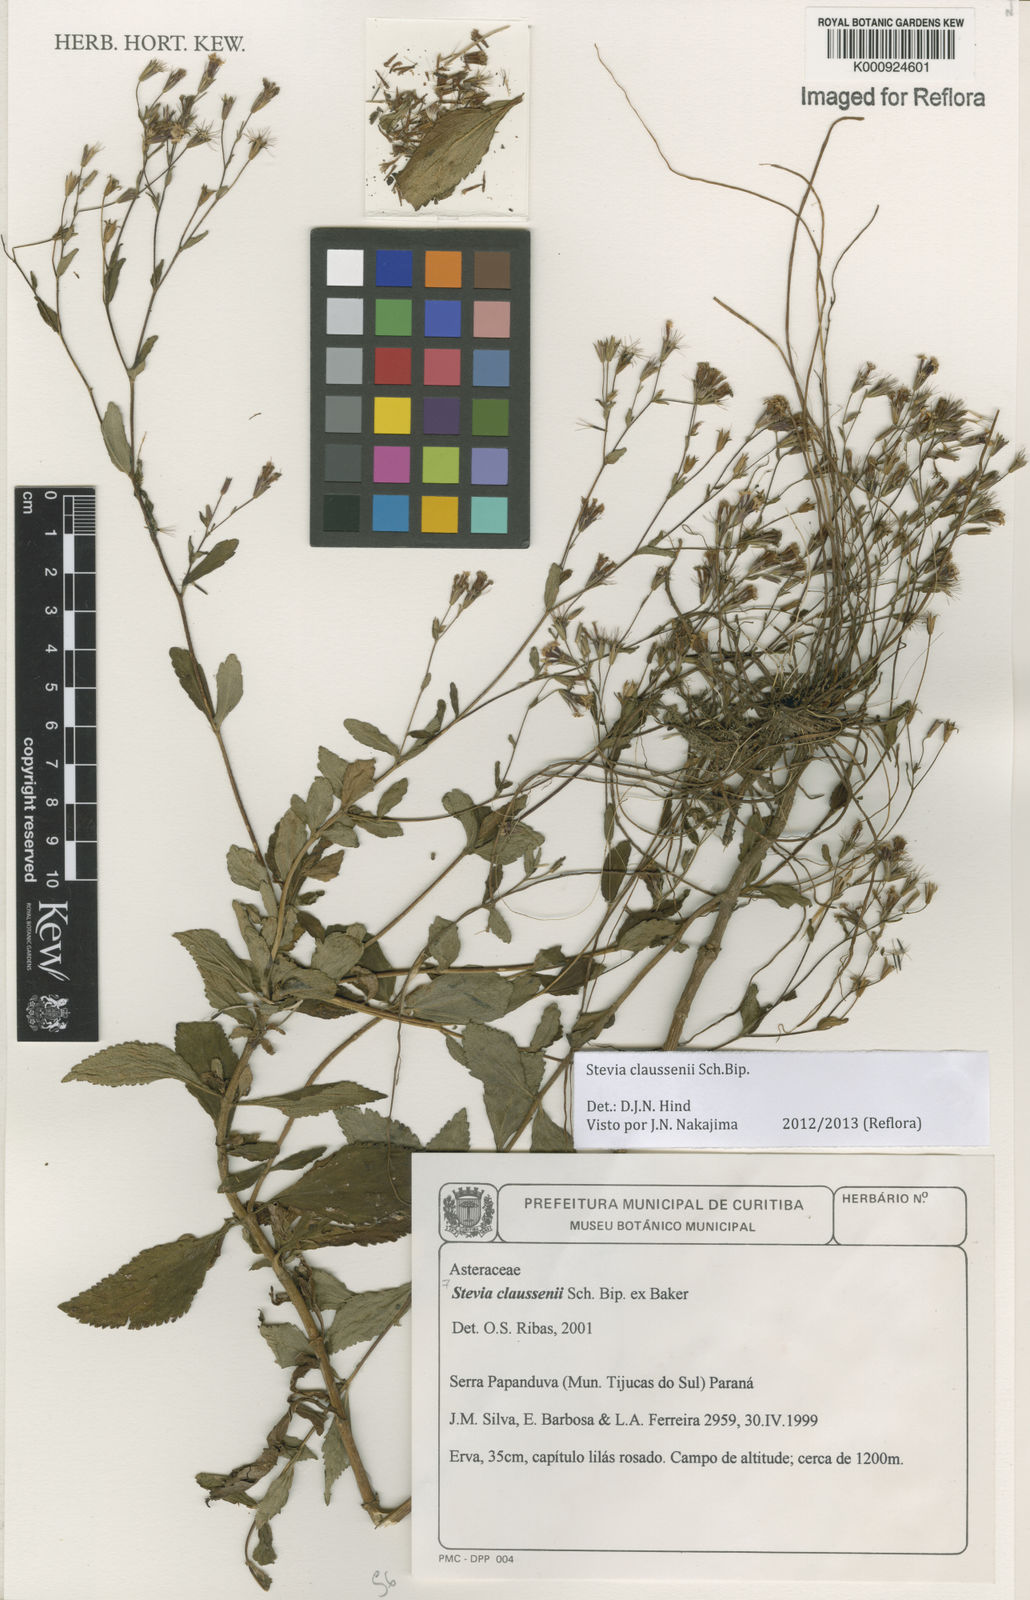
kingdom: Plantae
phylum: Tracheophyta
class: Magnoliopsida
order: Asterales
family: Asteraceae
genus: Stevia
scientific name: Stevia claussenii
